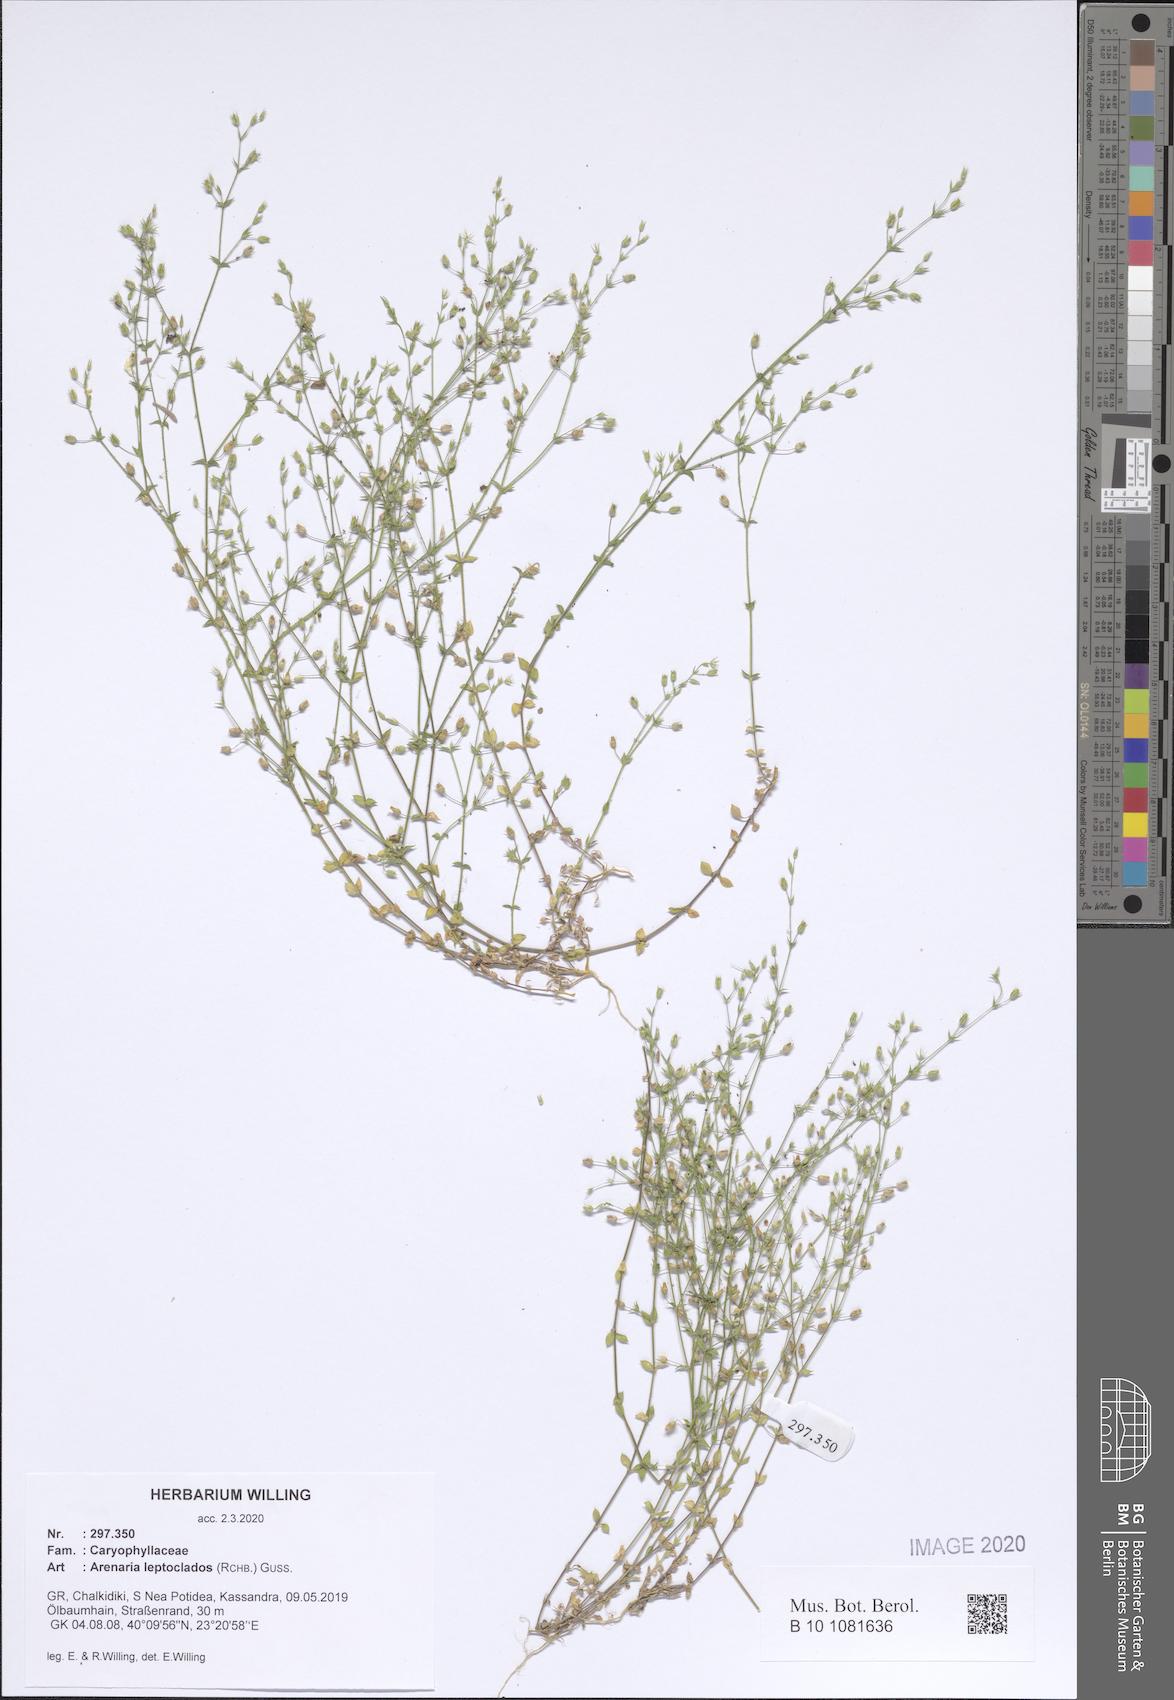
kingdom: Plantae
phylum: Tracheophyta
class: Magnoliopsida
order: Caryophyllales
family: Caryophyllaceae
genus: Arenaria
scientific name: Arenaria leptoclados
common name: Thyme-leaved sandwort
